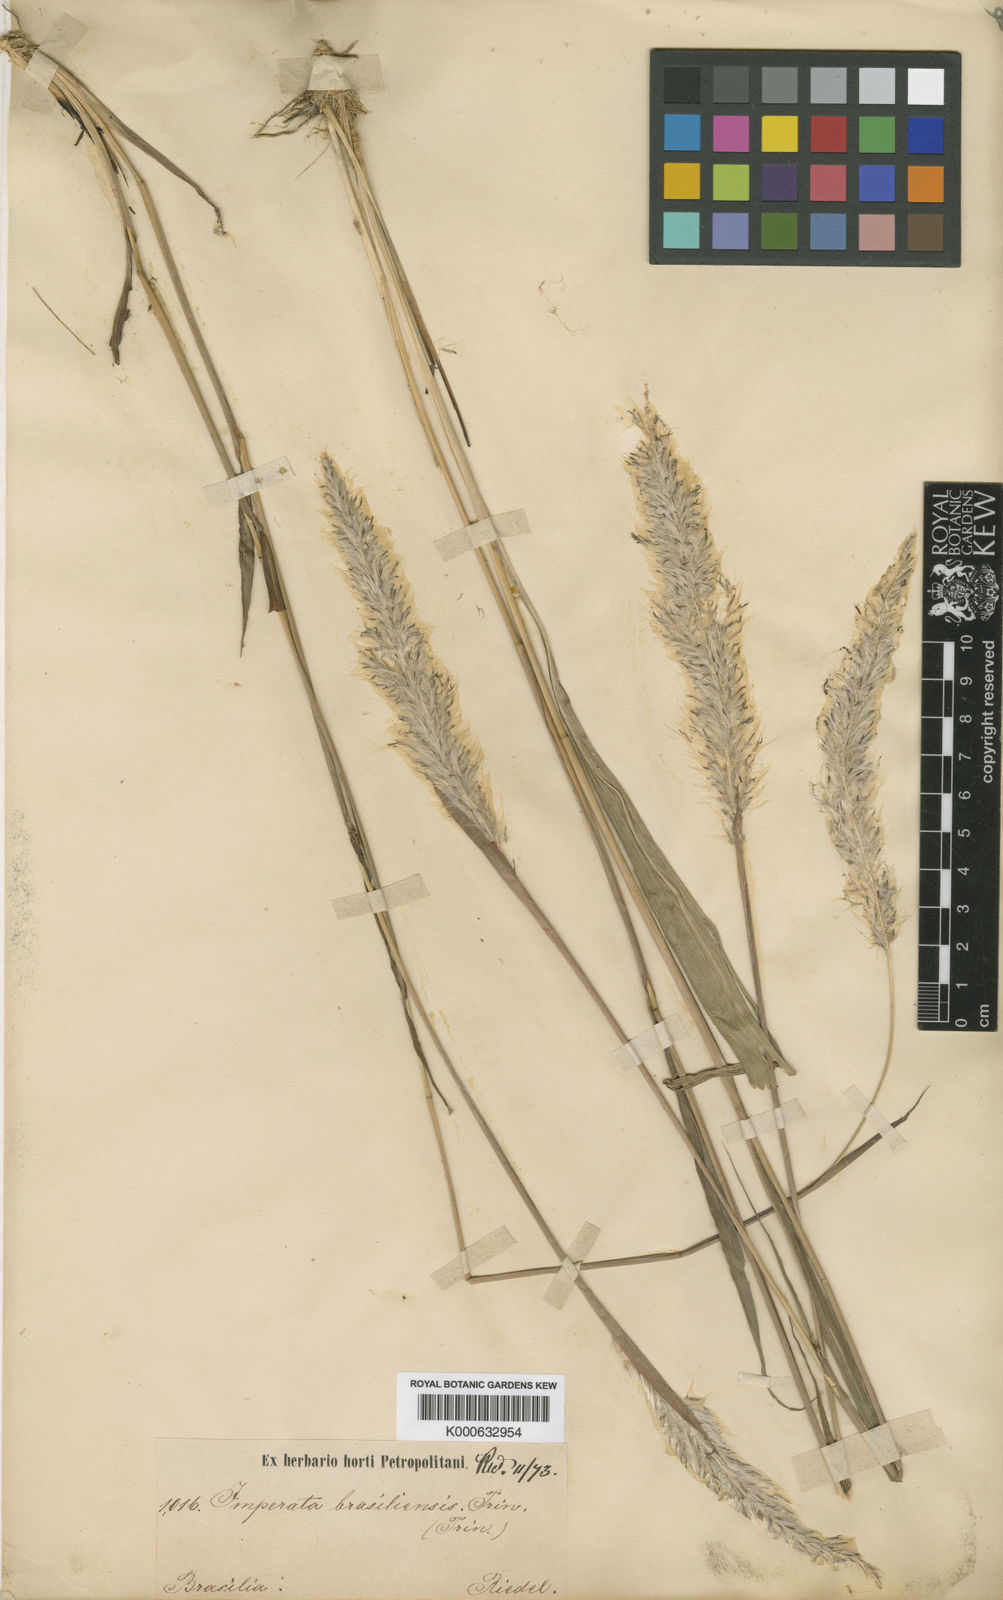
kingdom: Plantae
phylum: Tracheophyta
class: Liliopsida
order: Poales
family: Poaceae
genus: Imperata
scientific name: Imperata brasiliensis
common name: Brazilian satintail
